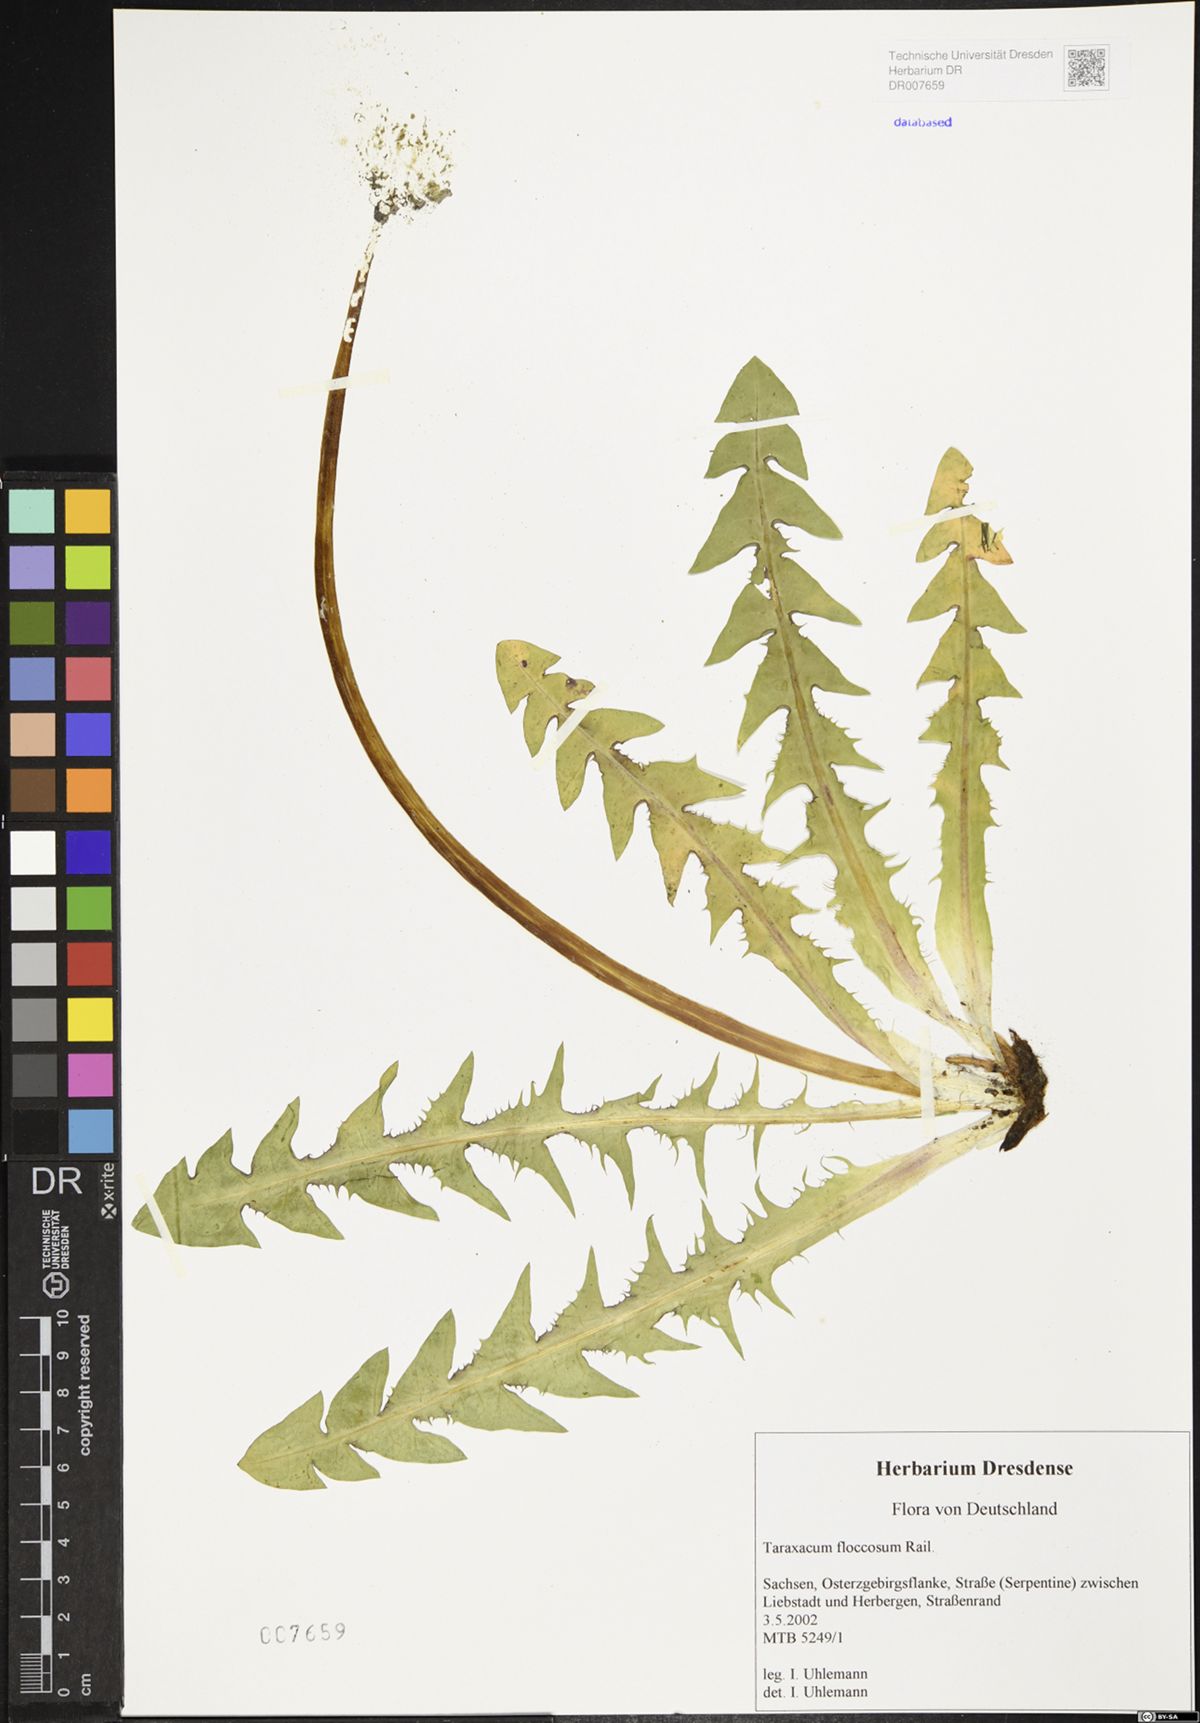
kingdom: Plantae
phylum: Tracheophyta
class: Magnoliopsida
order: Asterales
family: Asteraceae
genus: Taraxacum
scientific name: Taraxacum floccosum
